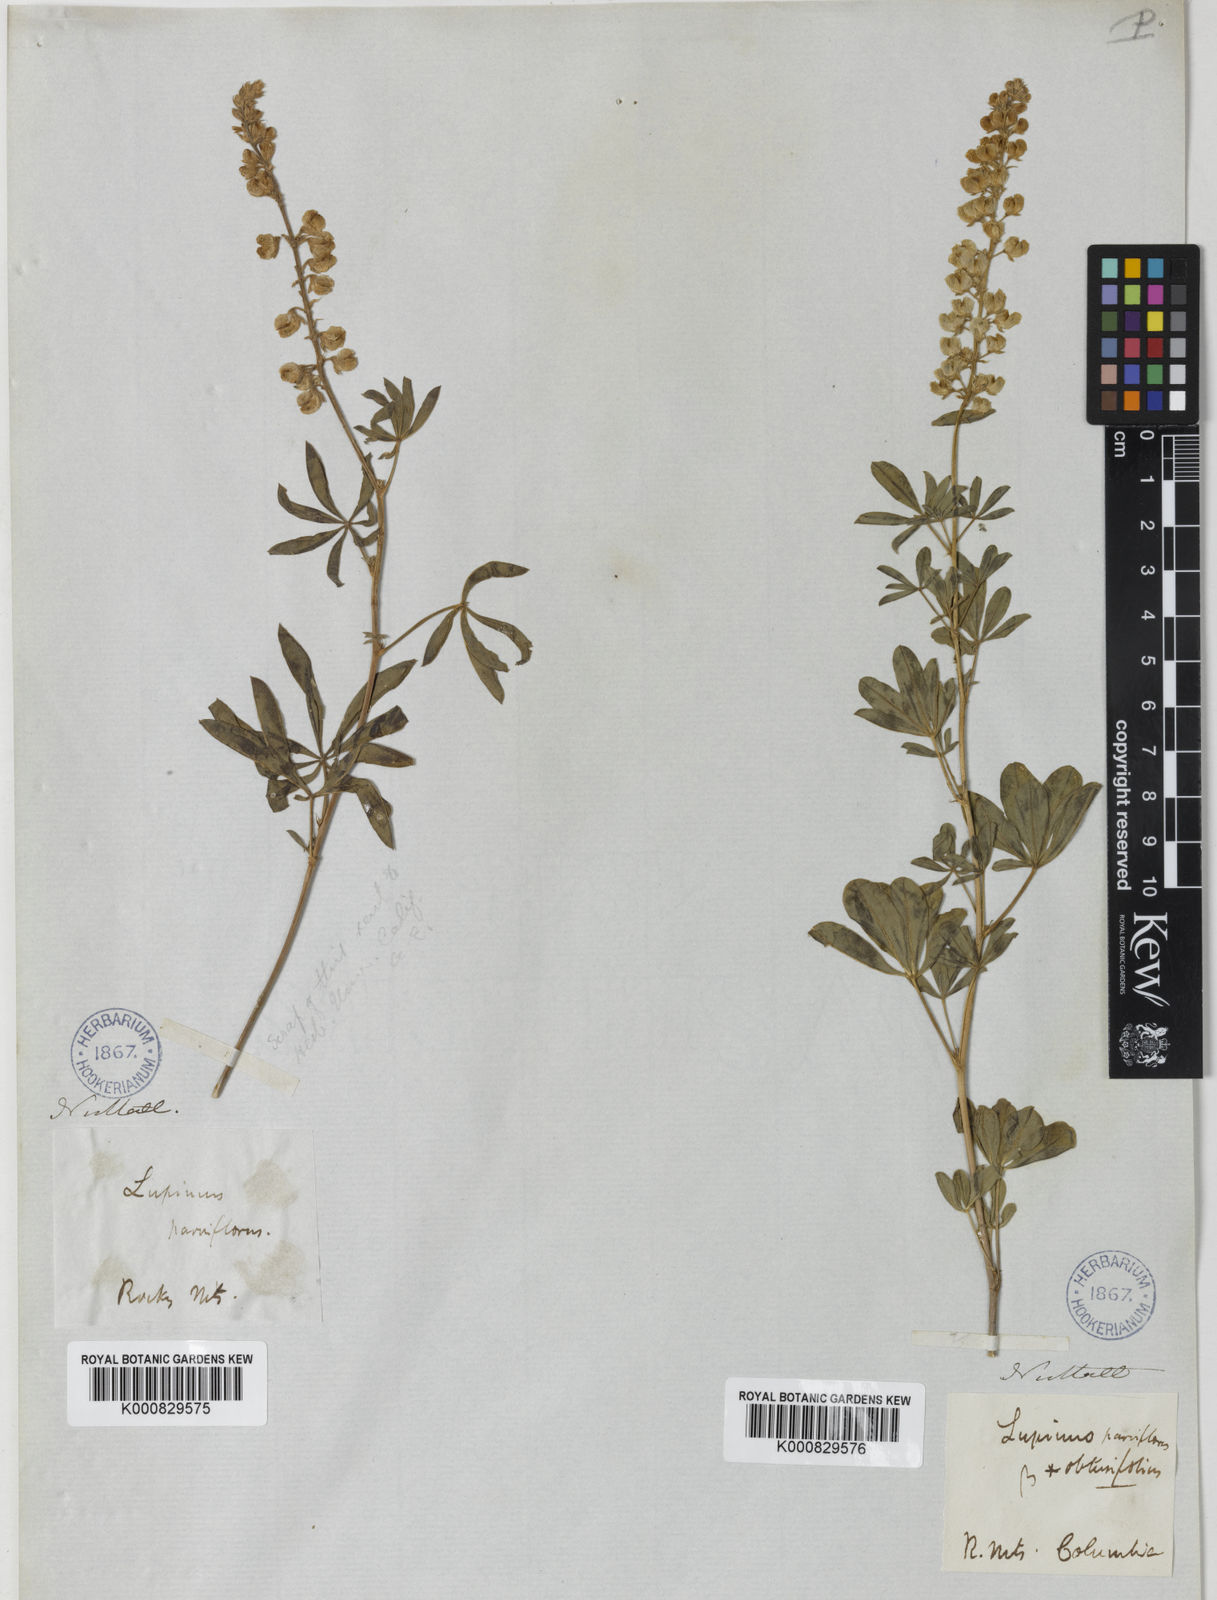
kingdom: Plantae
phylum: Tracheophyta
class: Magnoliopsida
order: Fabales
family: Fabaceae
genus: Lupinus
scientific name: Lupinus argenteus
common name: Silvery lupine
